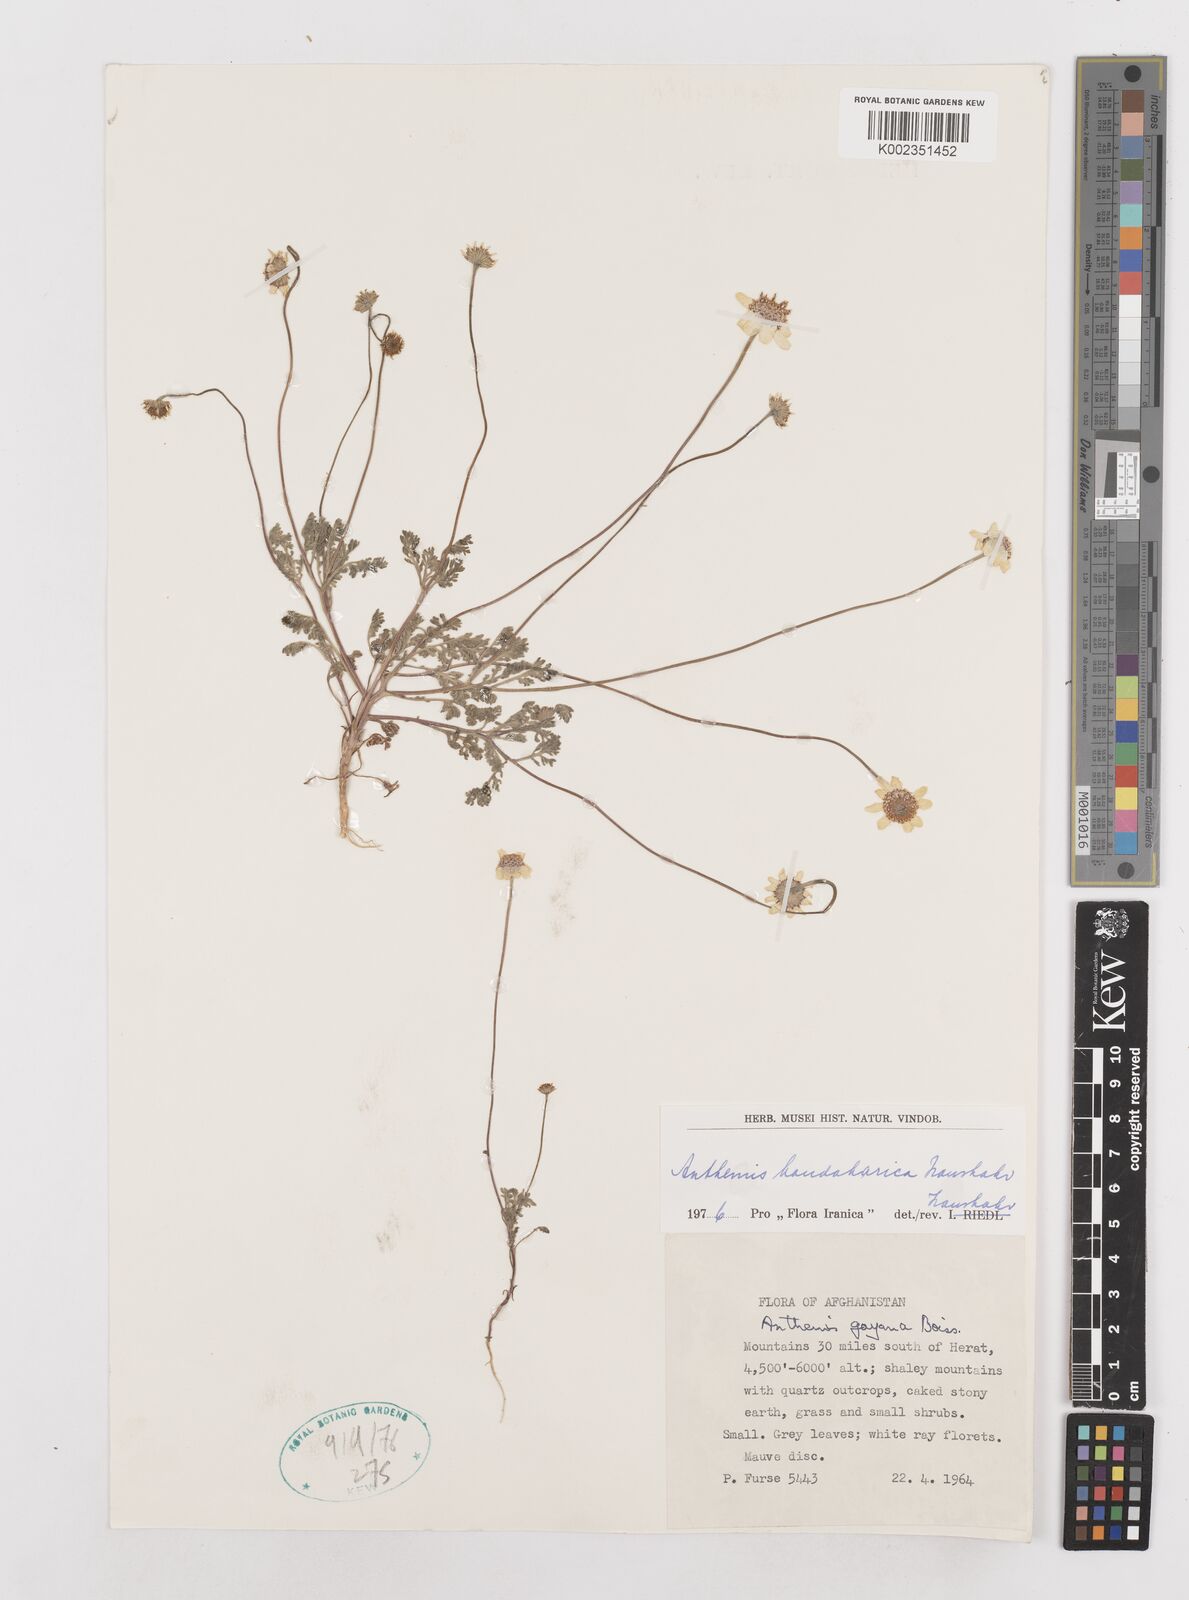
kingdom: Plantae
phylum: Tracheophyta
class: Magnoliopsida
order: Asterales
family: Asteraceae
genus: Anthemis
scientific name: Anthemis gayana
